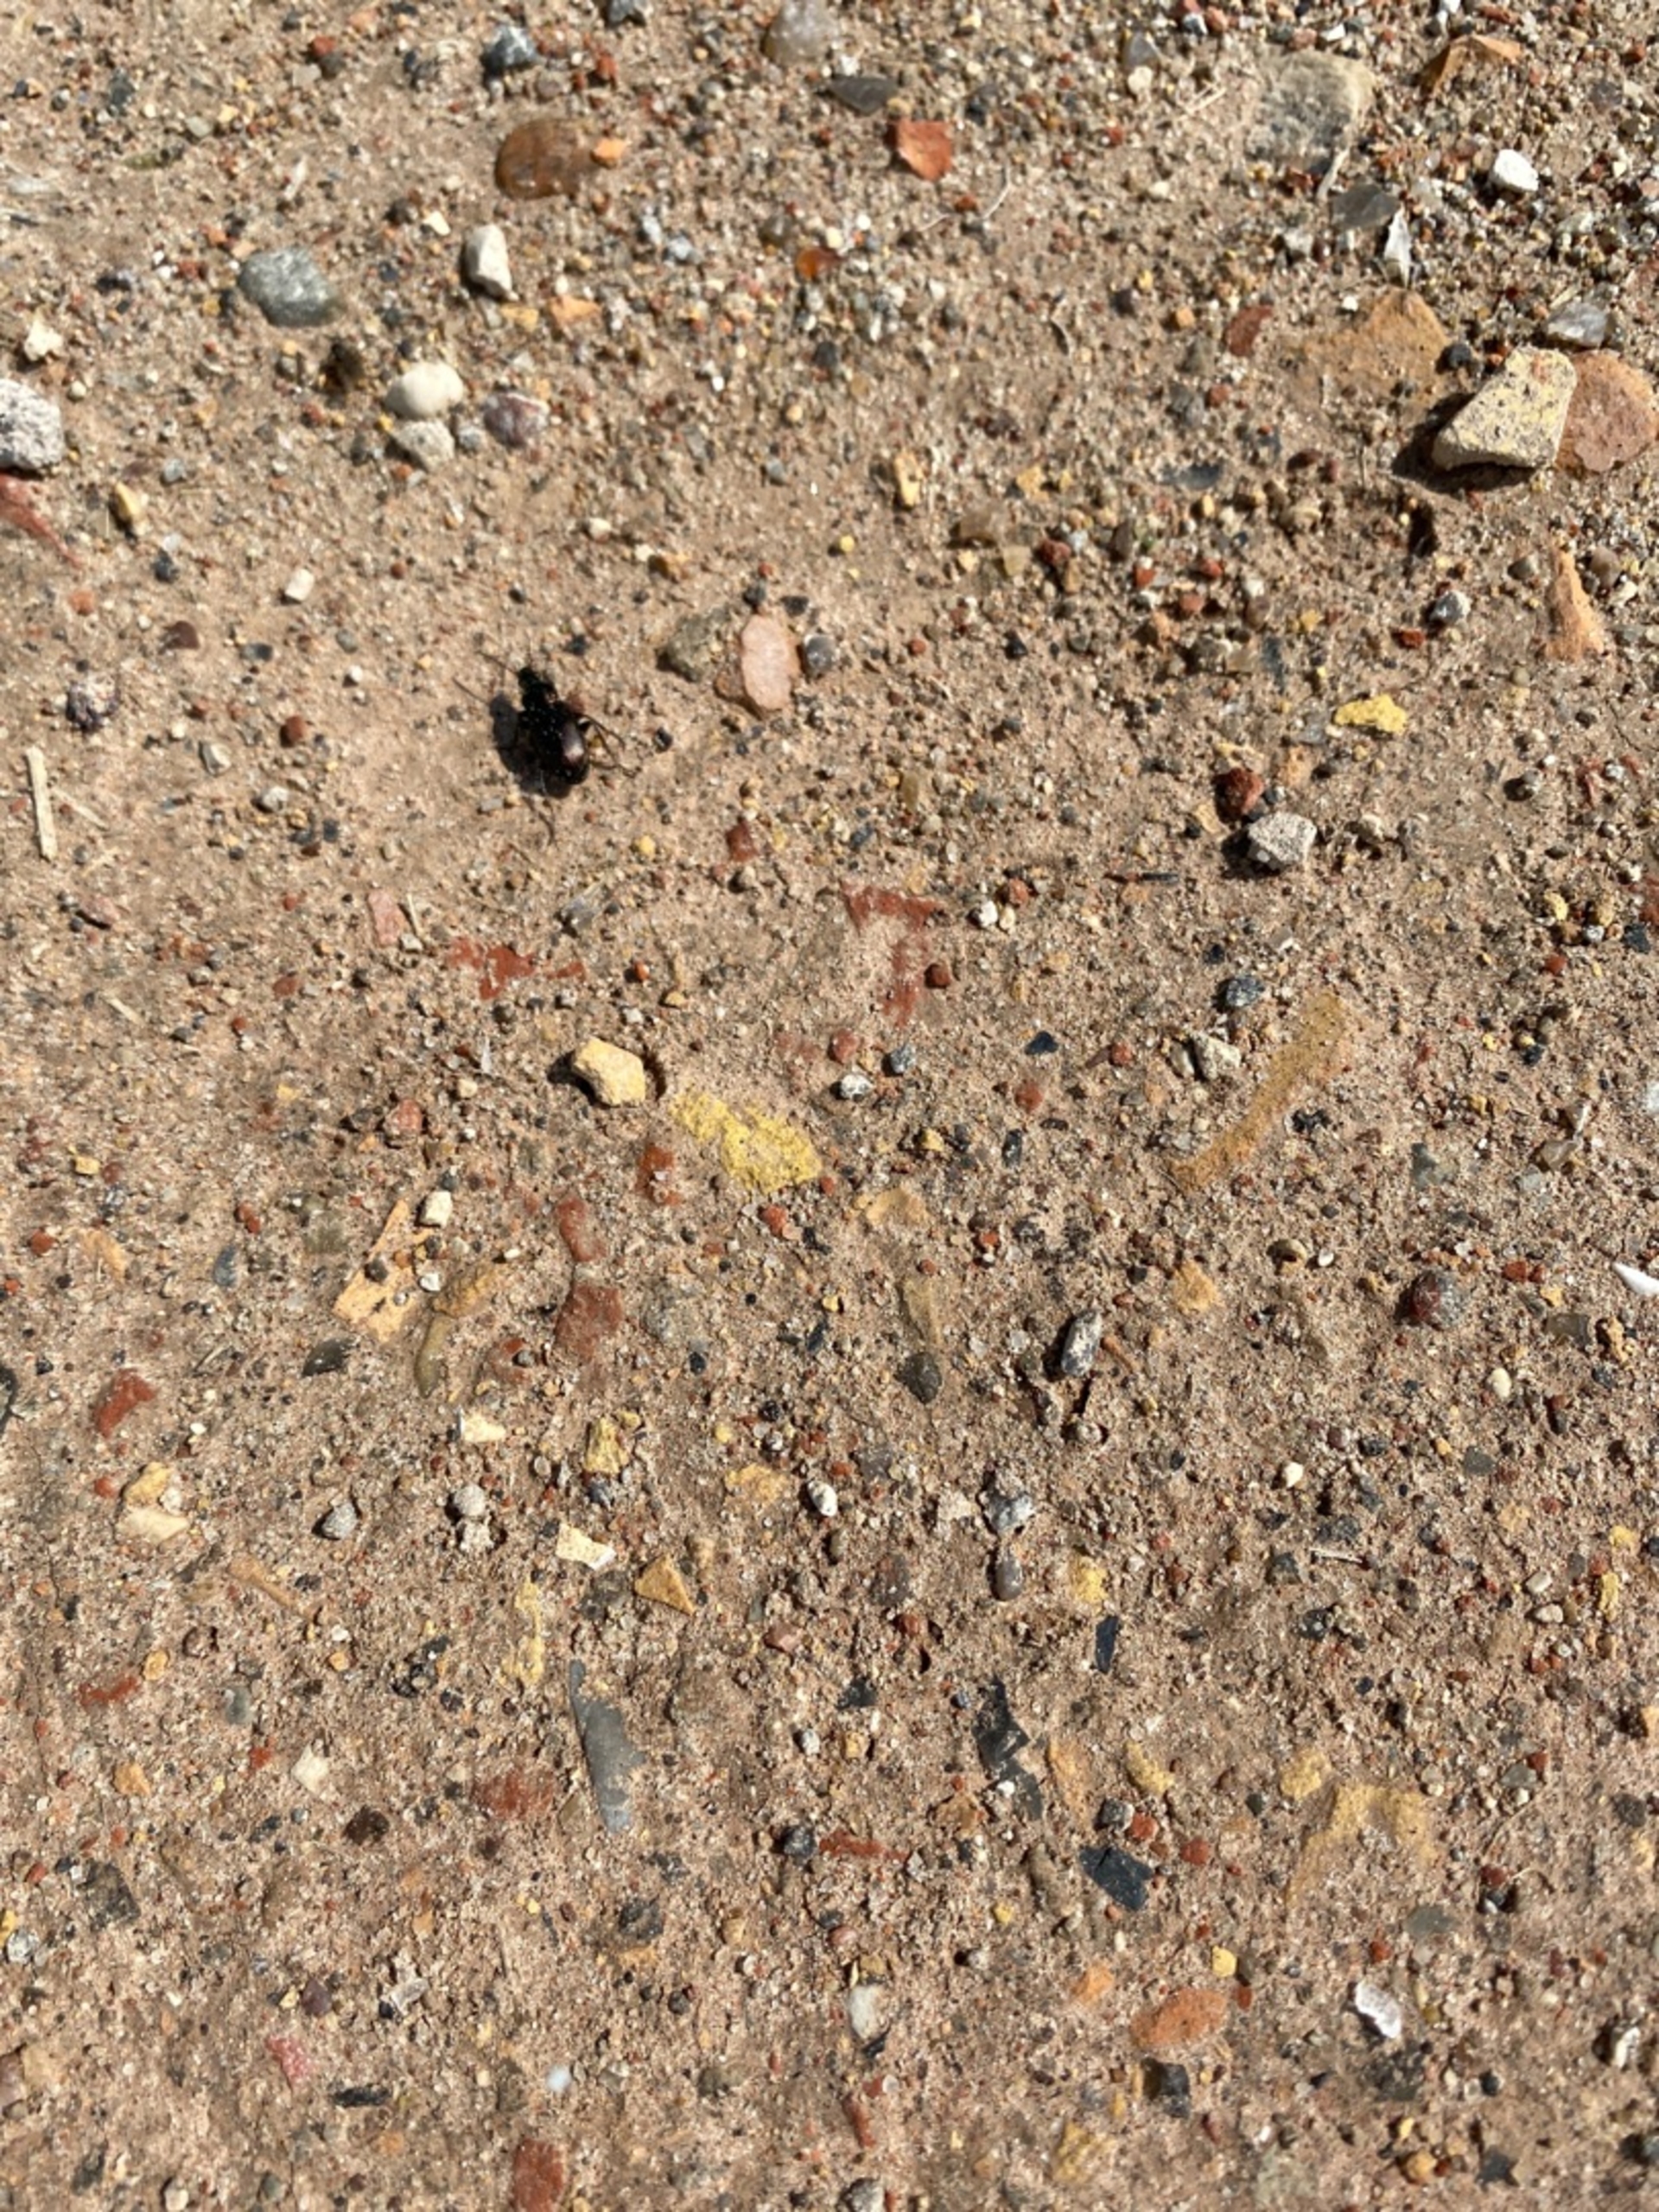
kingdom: Animalia
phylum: Arthropoda
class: Insecta
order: Coleoptera
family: Carabidae
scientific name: Carabidae
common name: Løbebiller
